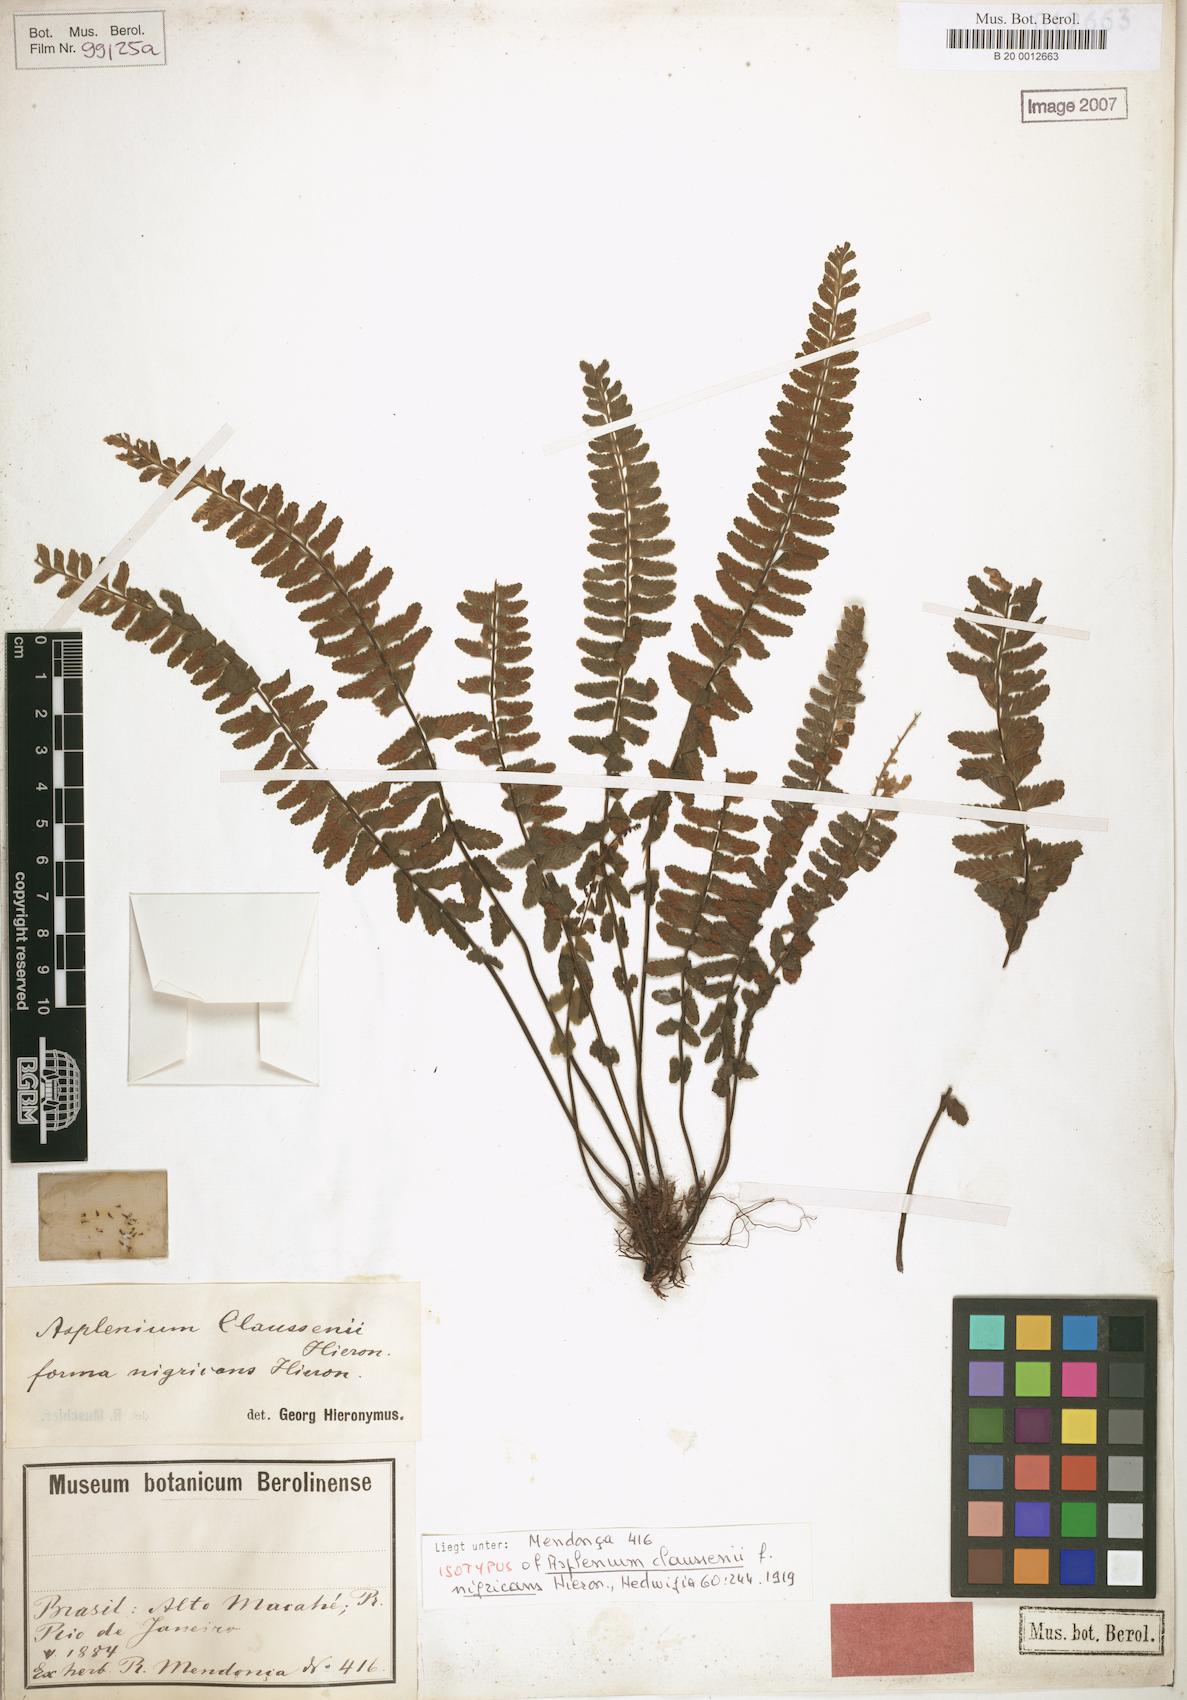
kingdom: Plantae
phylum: Tracheophyta
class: Polypodiopsida
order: Polypodiales
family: Aspleniaceae
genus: Asplenium
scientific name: Asplenium claussenii
